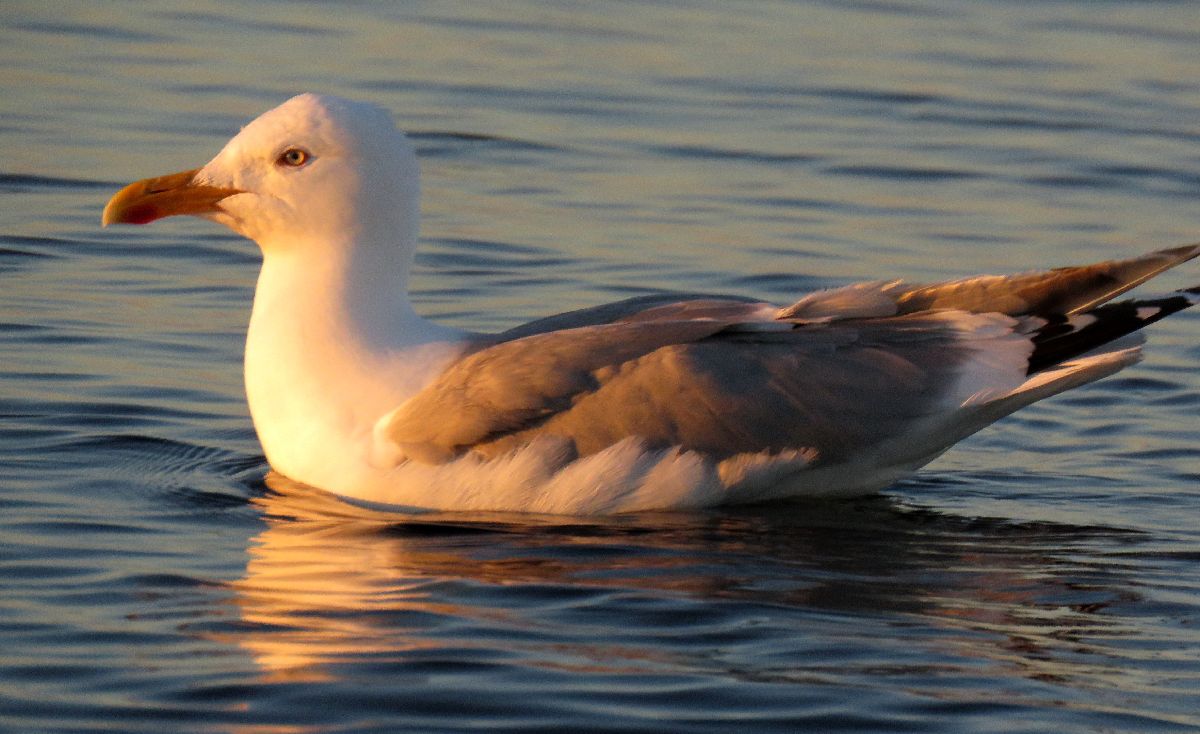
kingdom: Animalia
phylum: Chordata
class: Aves
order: Charadriiformes
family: Laridae
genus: Larus
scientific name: Larus argentatus
